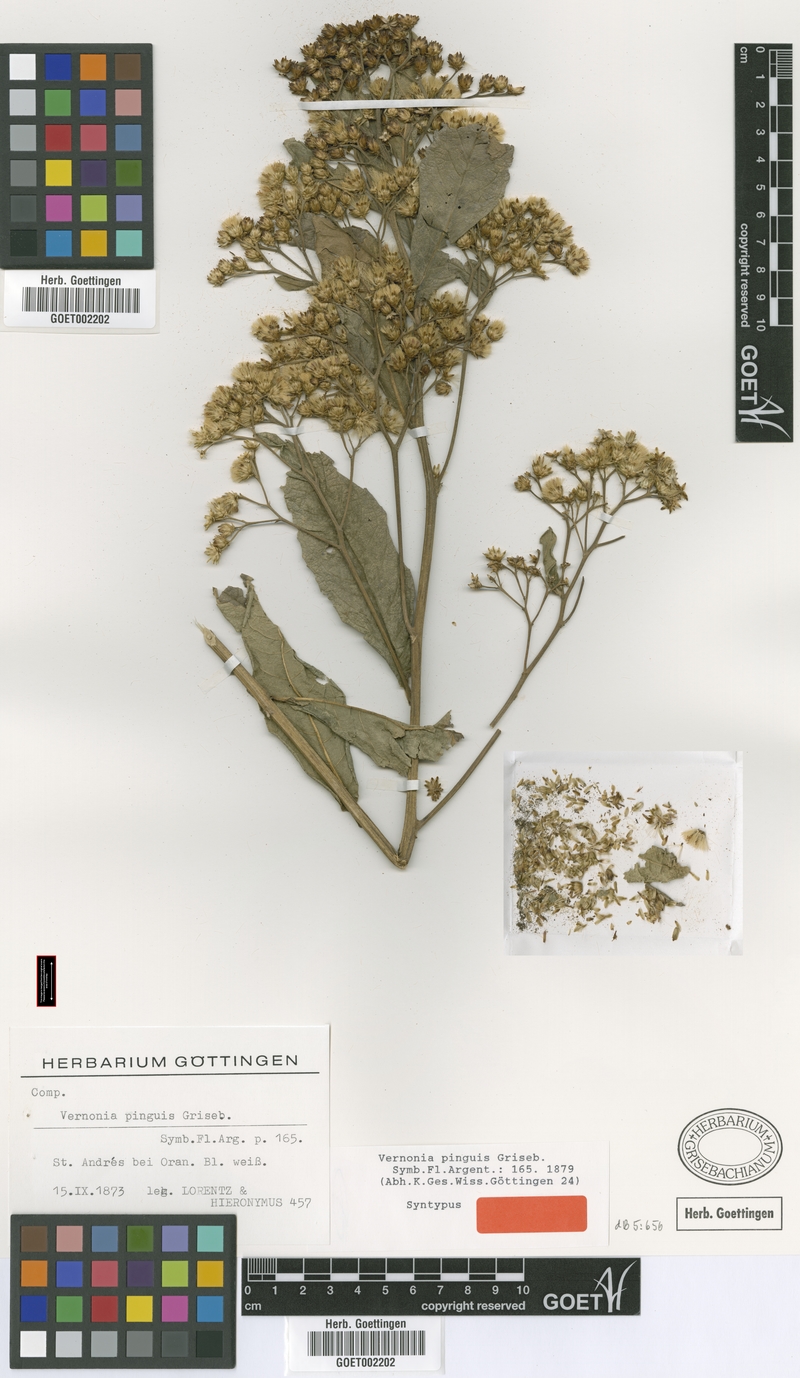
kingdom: Plantae
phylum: Tracheophyta
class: Magnoliopsida
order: Asterales
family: Asteraceae
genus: Vernonanthura
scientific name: Vernonanthura pinguis
